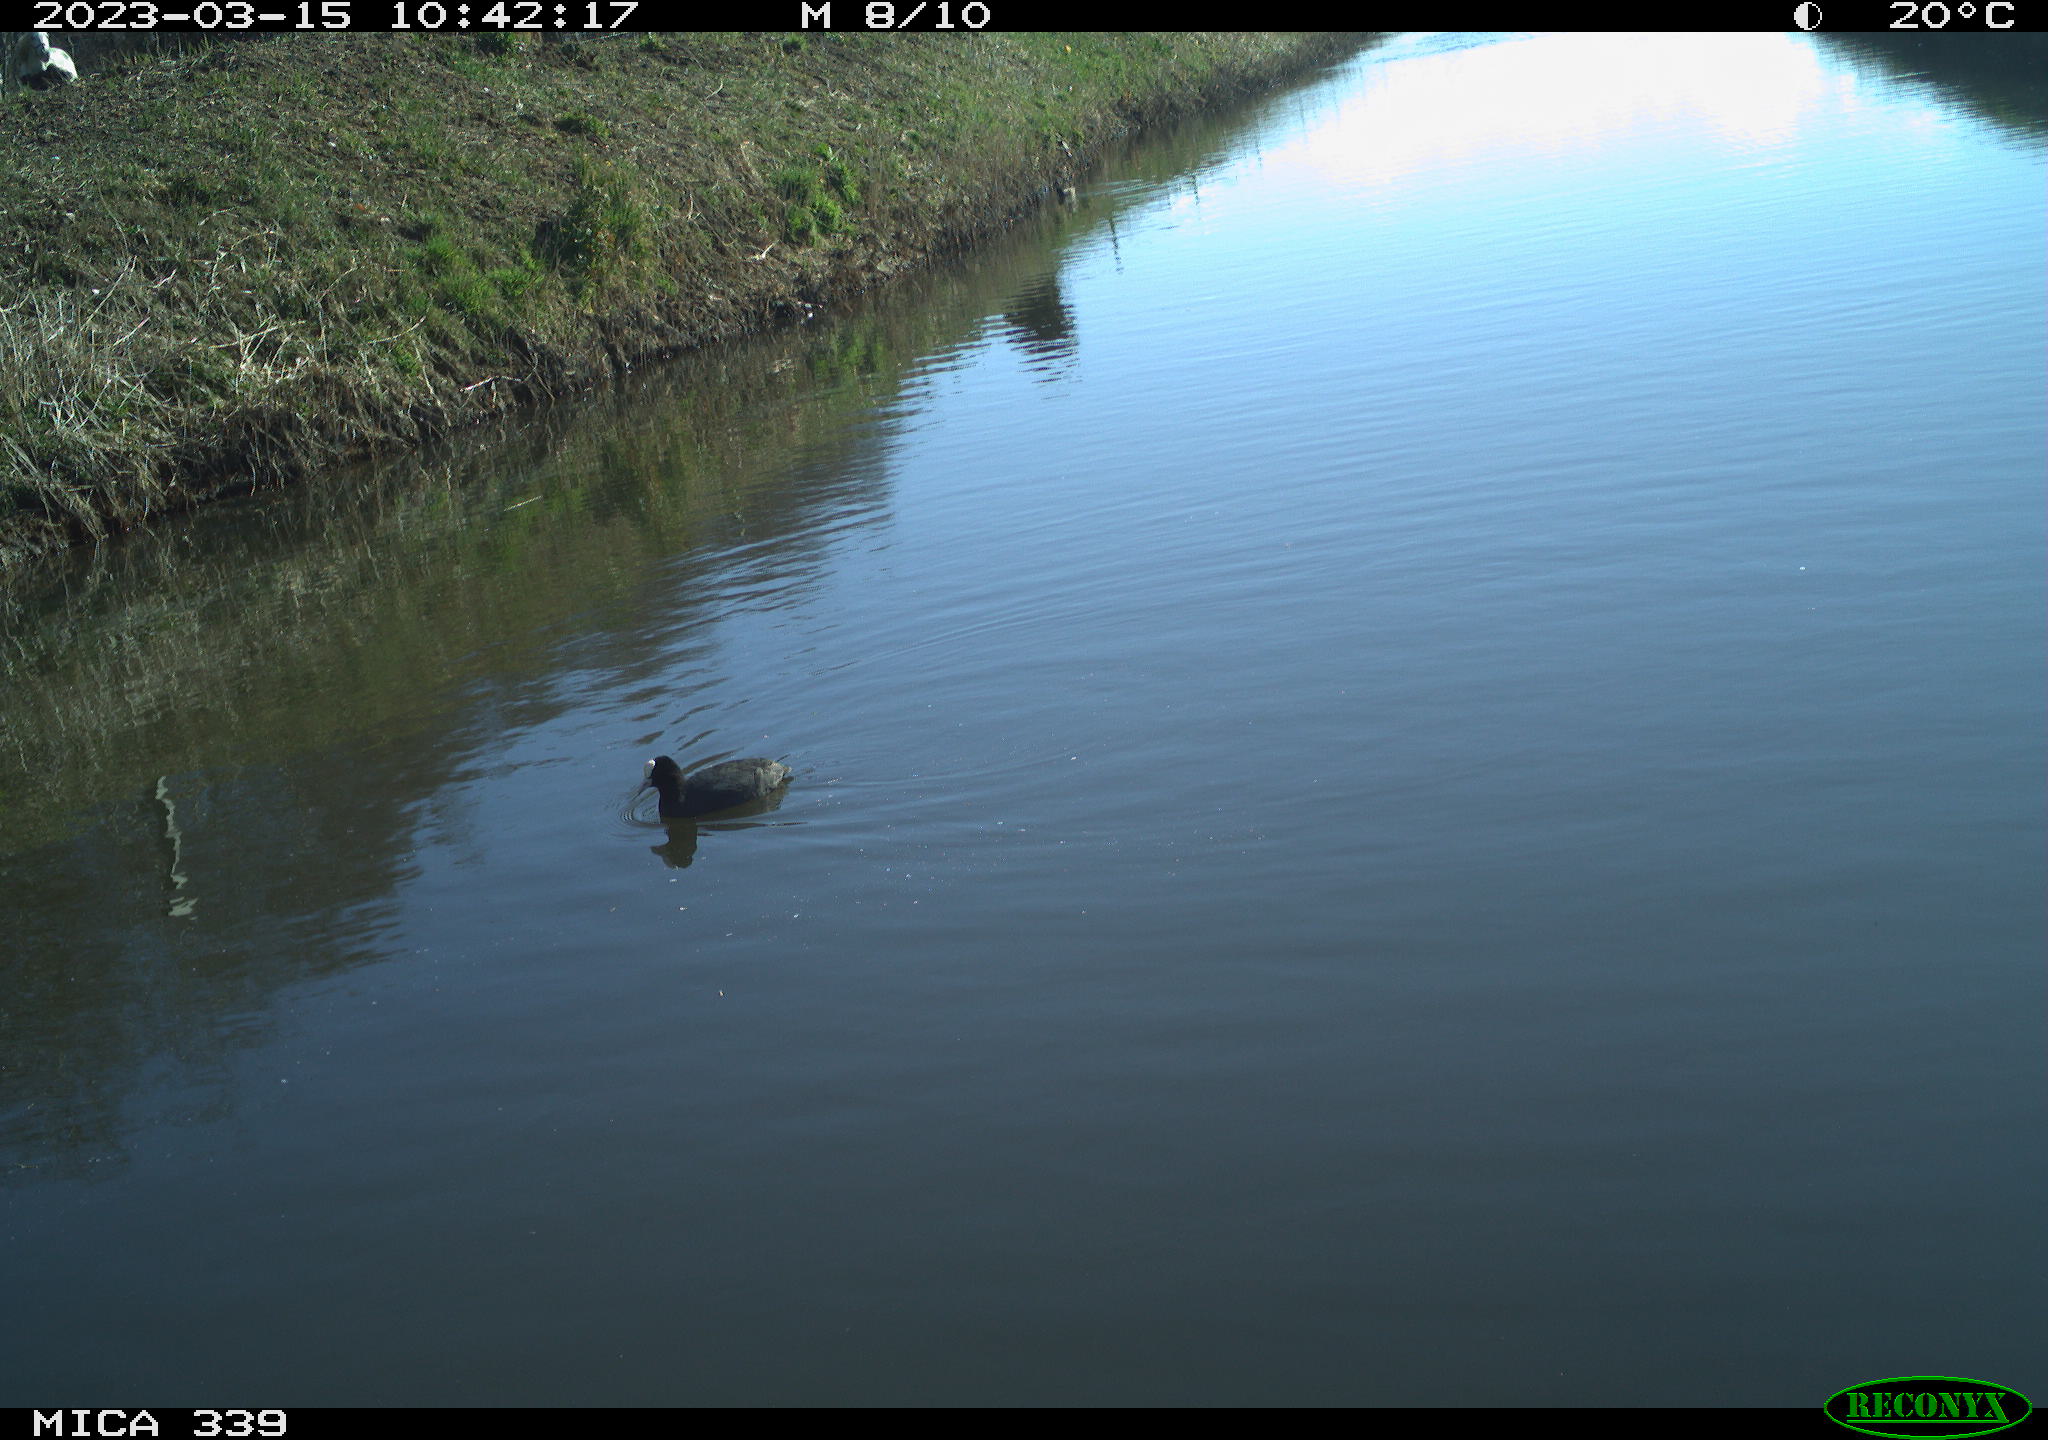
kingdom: Animalia
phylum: Chordata
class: Aves
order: Gruiformes
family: Rallidae
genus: Fulica
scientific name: Fulica atra
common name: Eurasian coot
